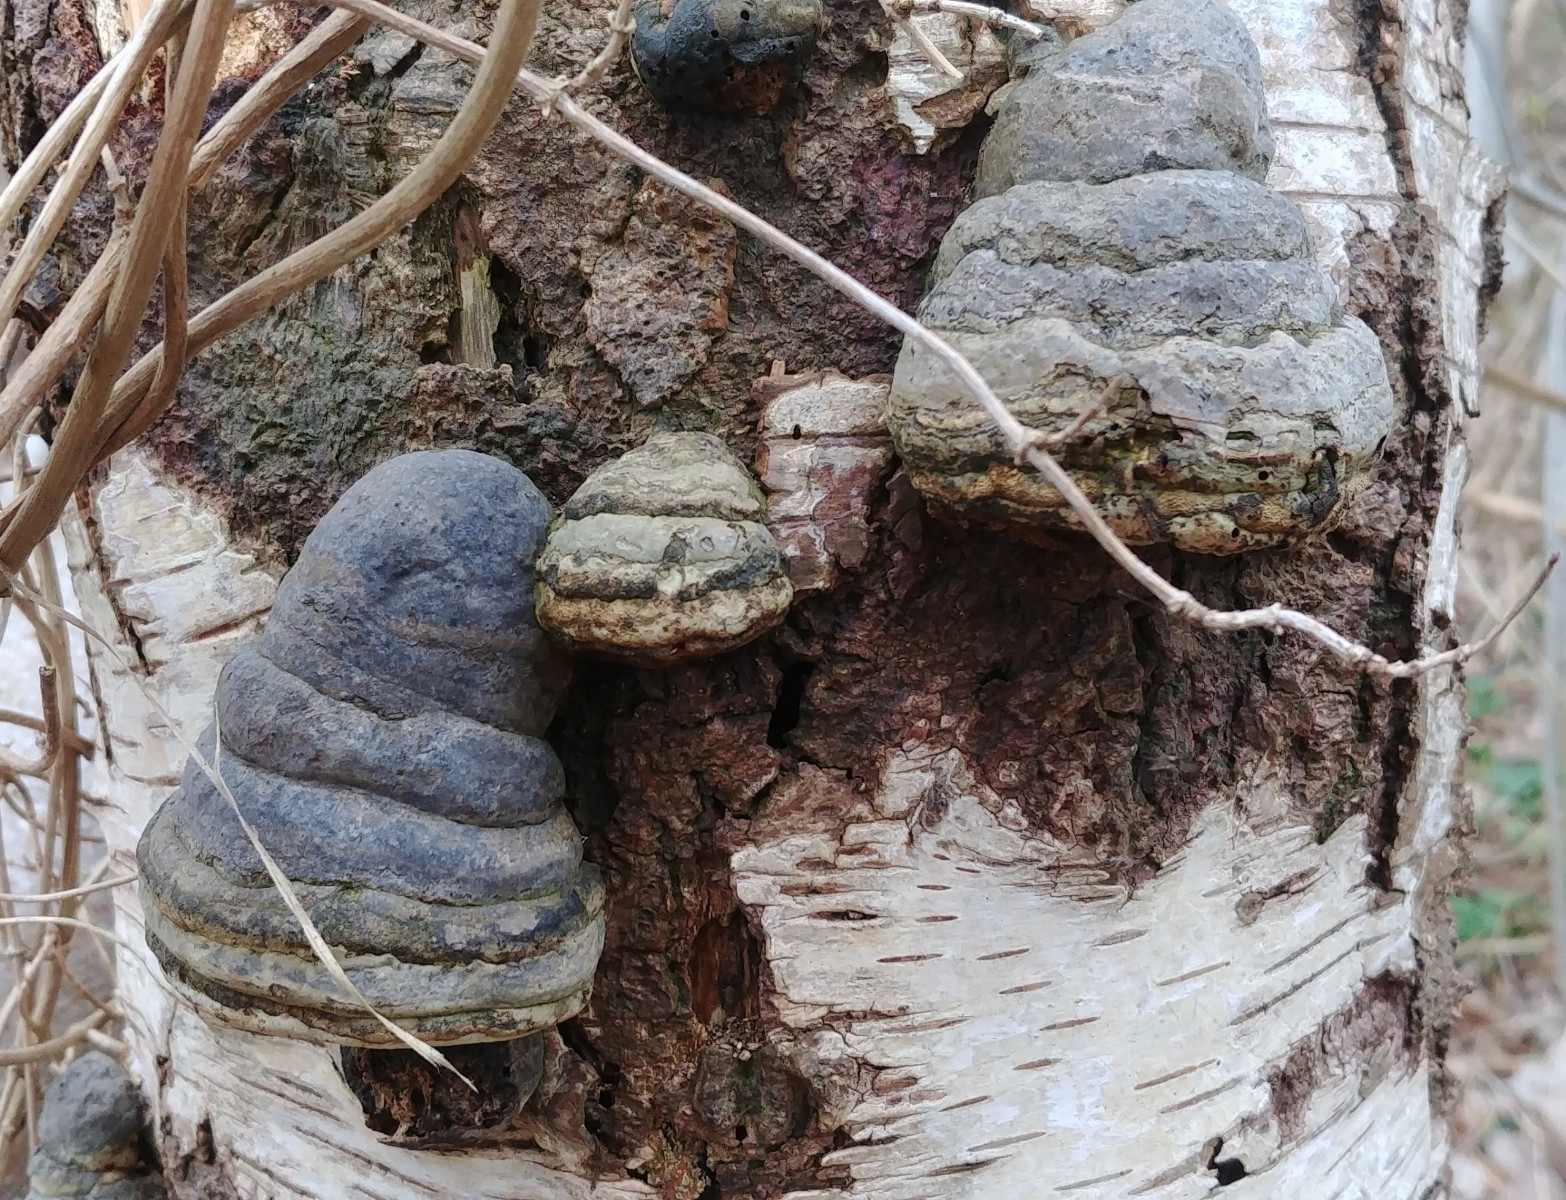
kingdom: Fungi
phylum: Basidiomycota
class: Agaricomycetes
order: Polyporales
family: Polyporaceae
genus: Fomes
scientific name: Fomes fomentarius
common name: tøndersvamp
